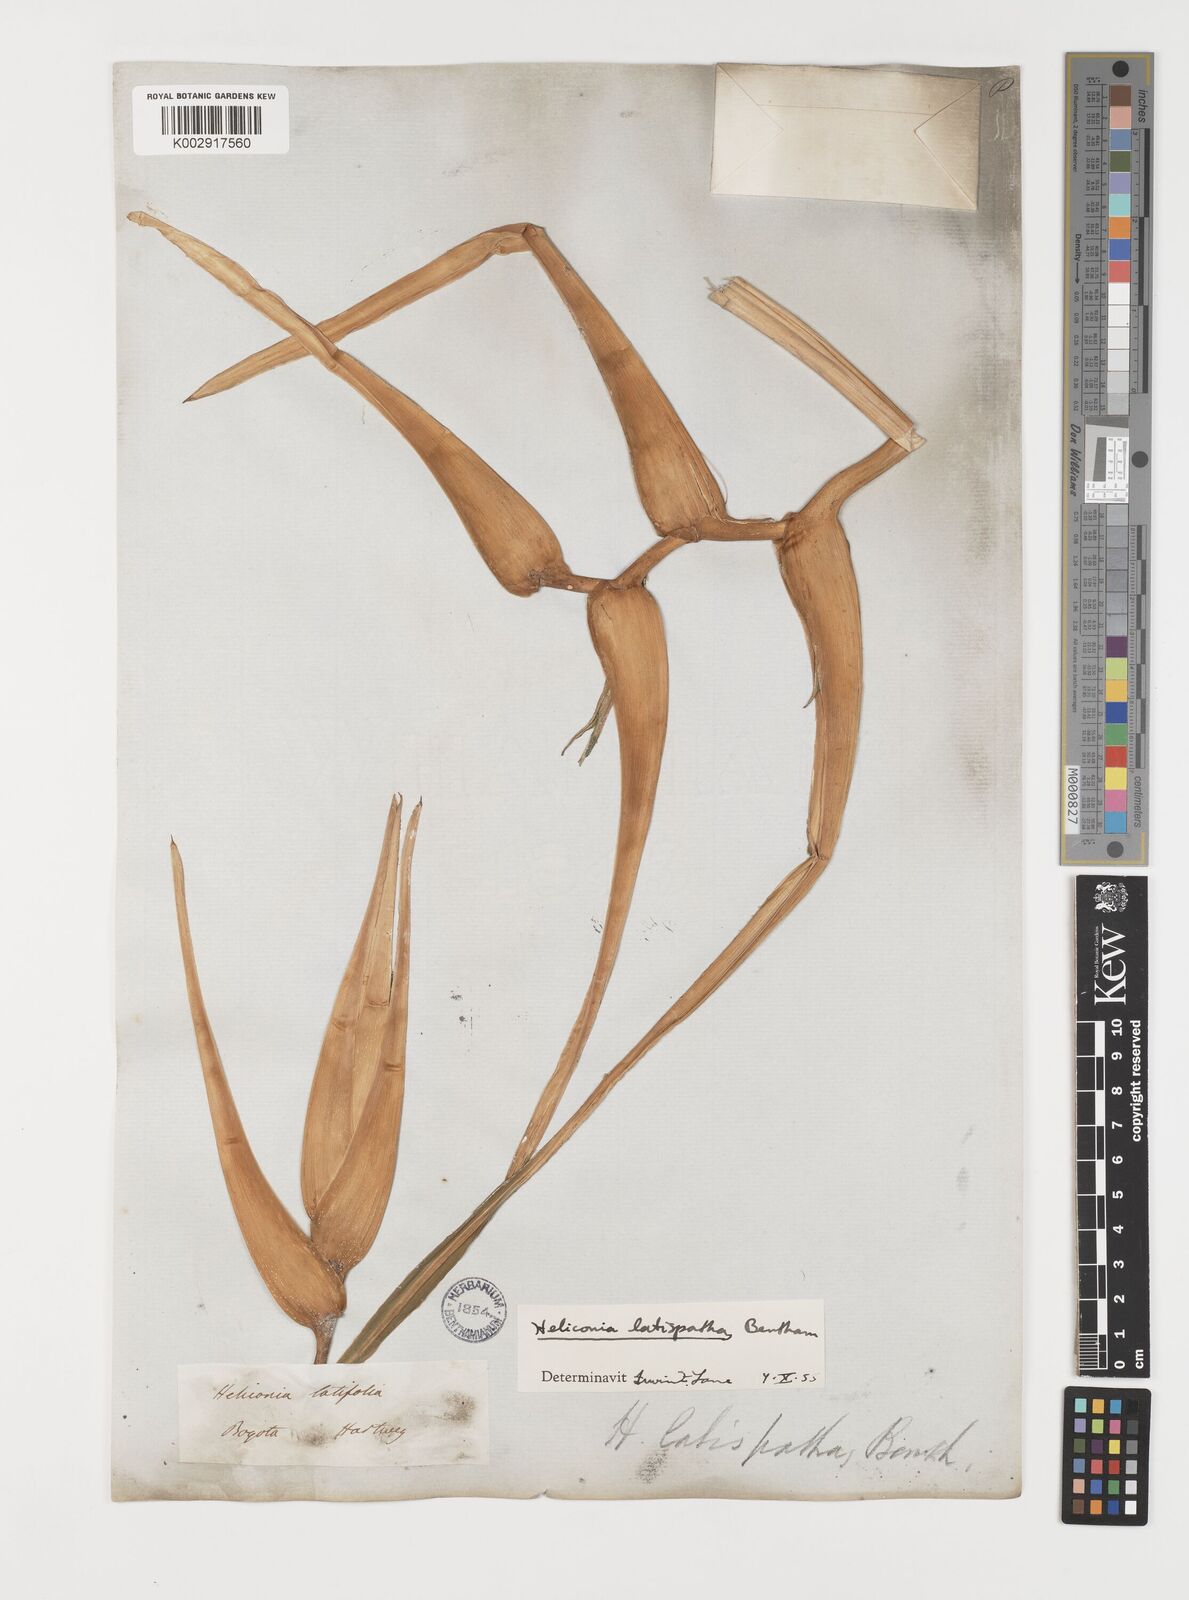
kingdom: Plantae
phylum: Tracheophyta
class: Liliopsida
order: Zingiberales
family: Heliconiaceae
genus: Heliconia
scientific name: Heliconia latispatha
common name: Expanded lobsterclaw
